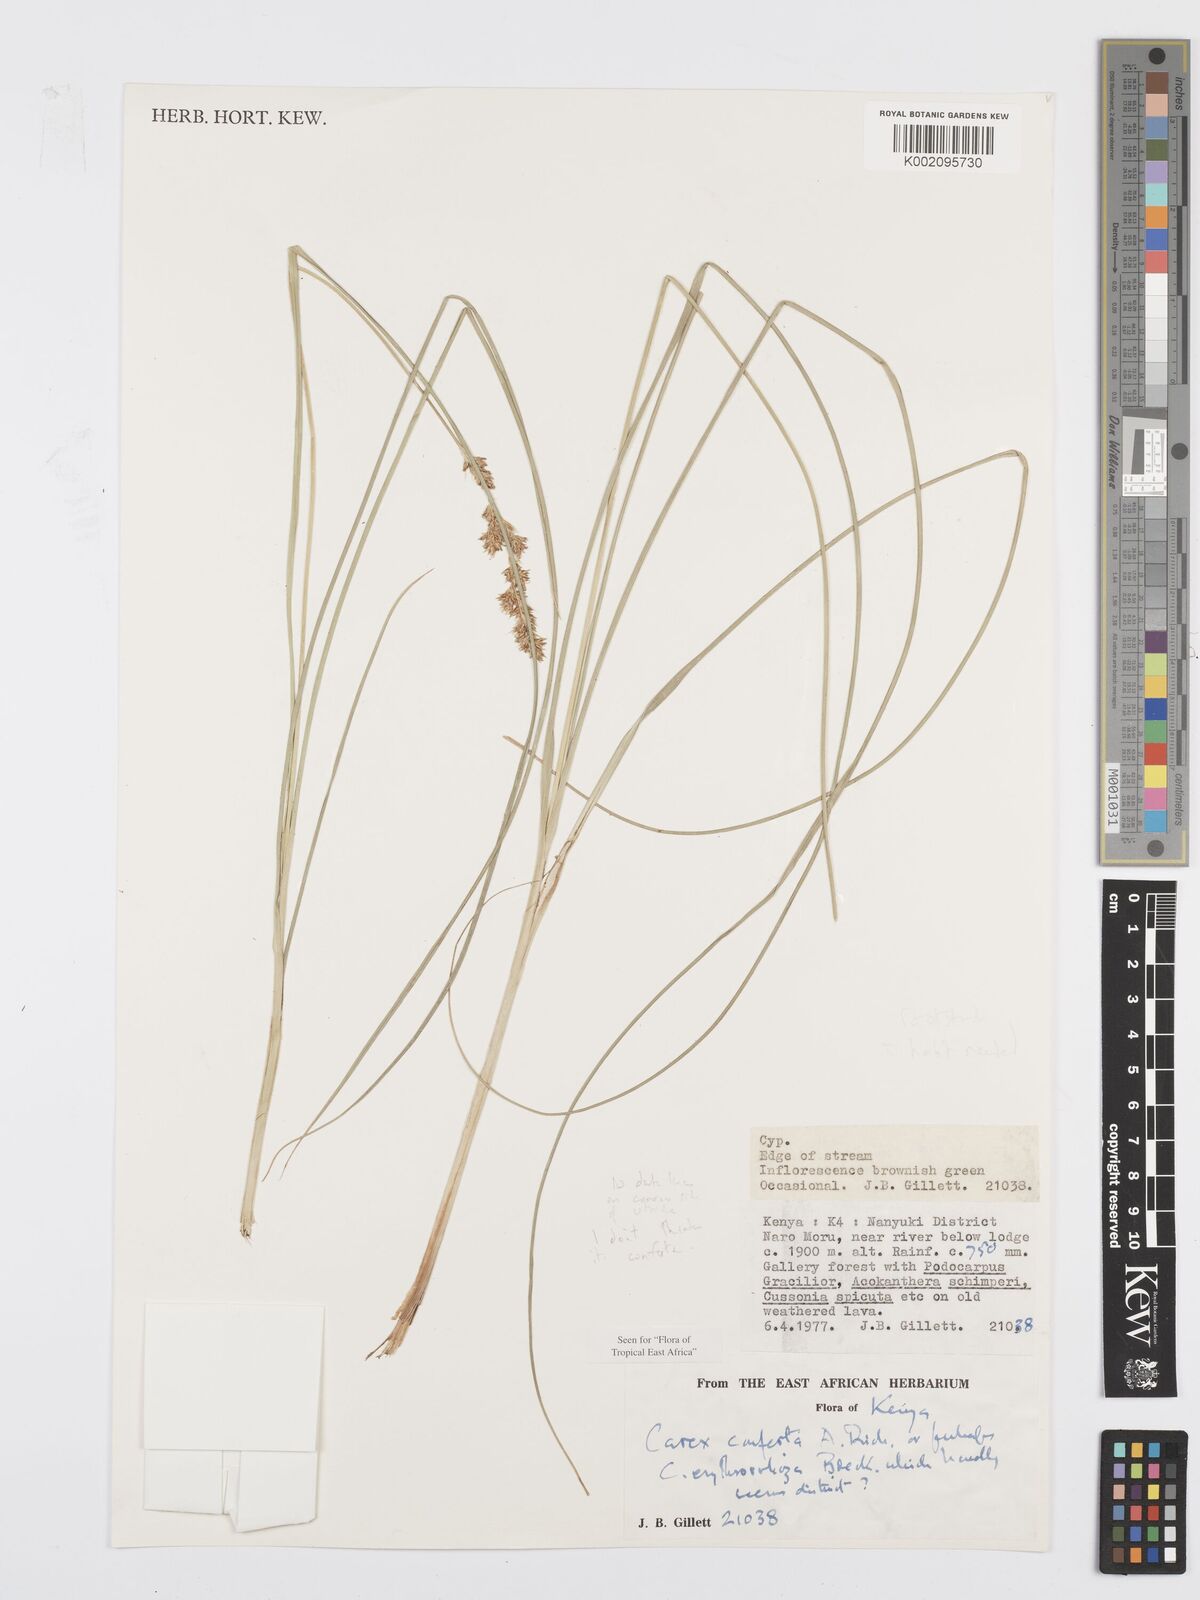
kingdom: Plantae
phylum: Tracheophyta
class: Liliopsida
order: Poales
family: Cyperaceae
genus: Carex
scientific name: Carex erythrorrhiza
